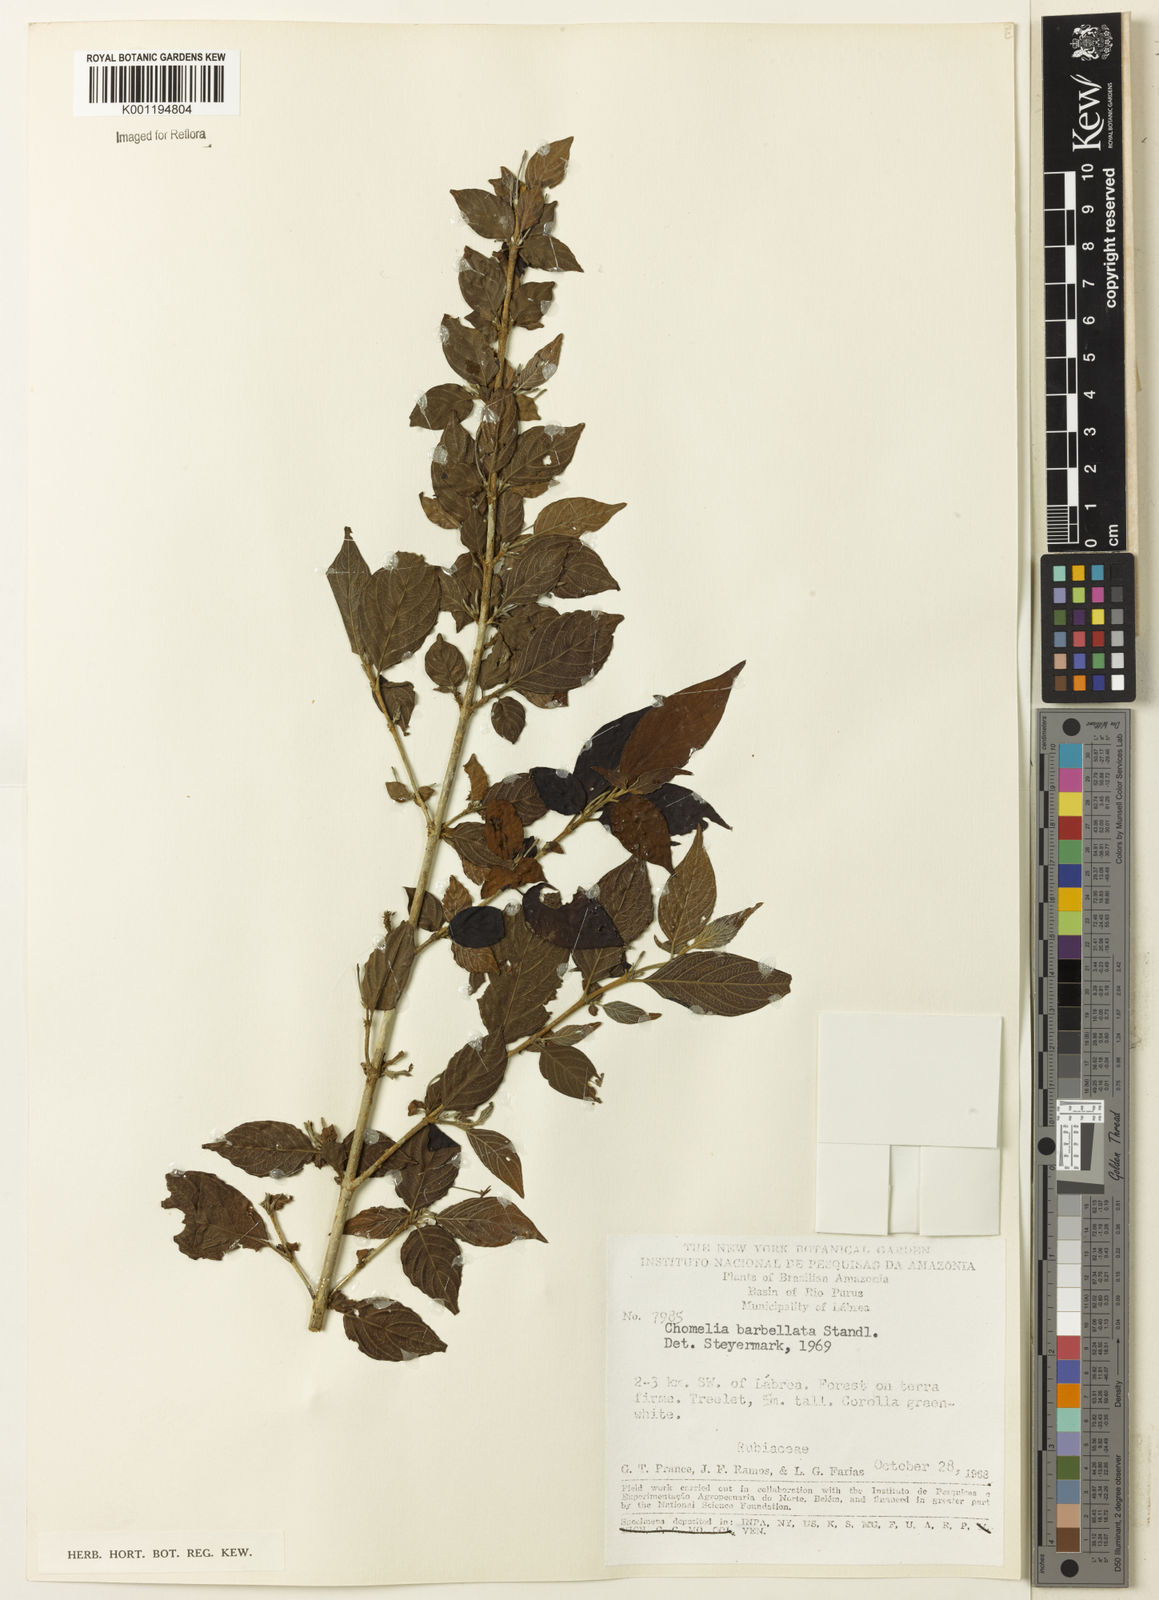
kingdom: Plantae
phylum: Tracheophyta
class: Magnoliopsida
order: Gentianales
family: Rubiaceae
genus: Chomelia
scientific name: Chomelia tenuiflora
